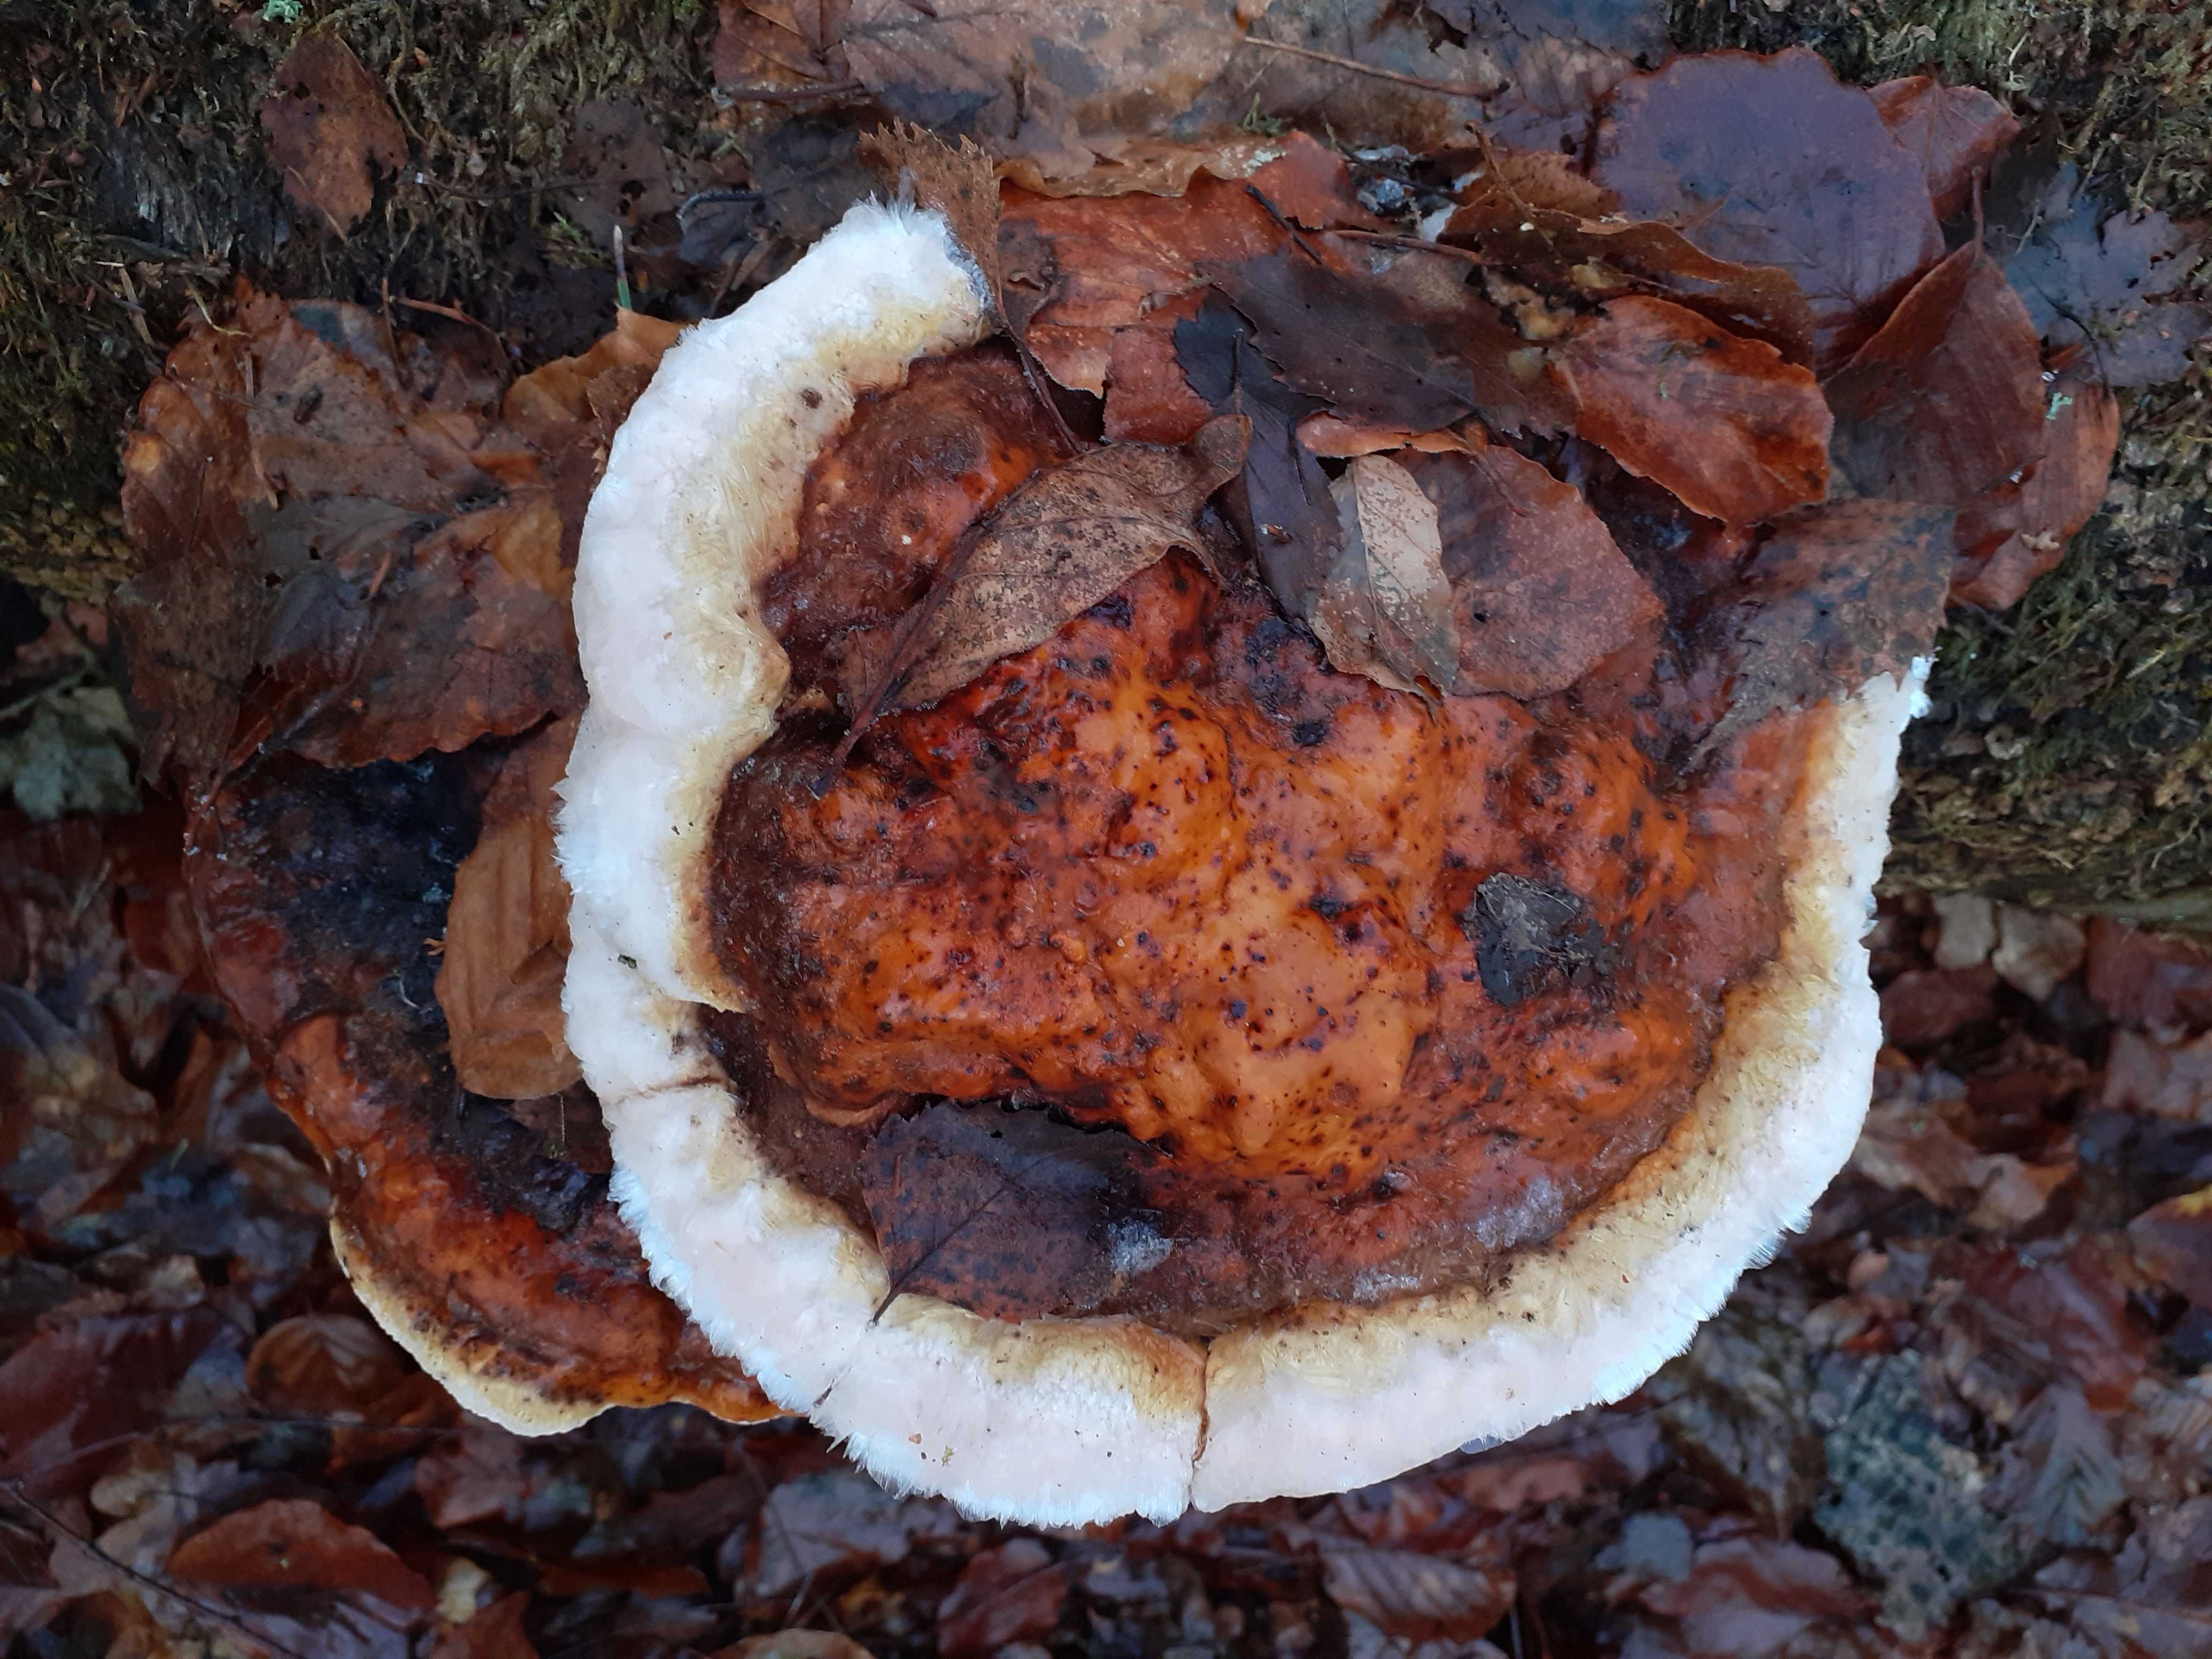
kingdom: Fungi
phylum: Basidiomycota
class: Agaricomycetes
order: Polyporales
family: Fomitopsidaceae
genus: Fomitopsis
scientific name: Fomitopsis pinicola
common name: randbæltet hovporesvamp
